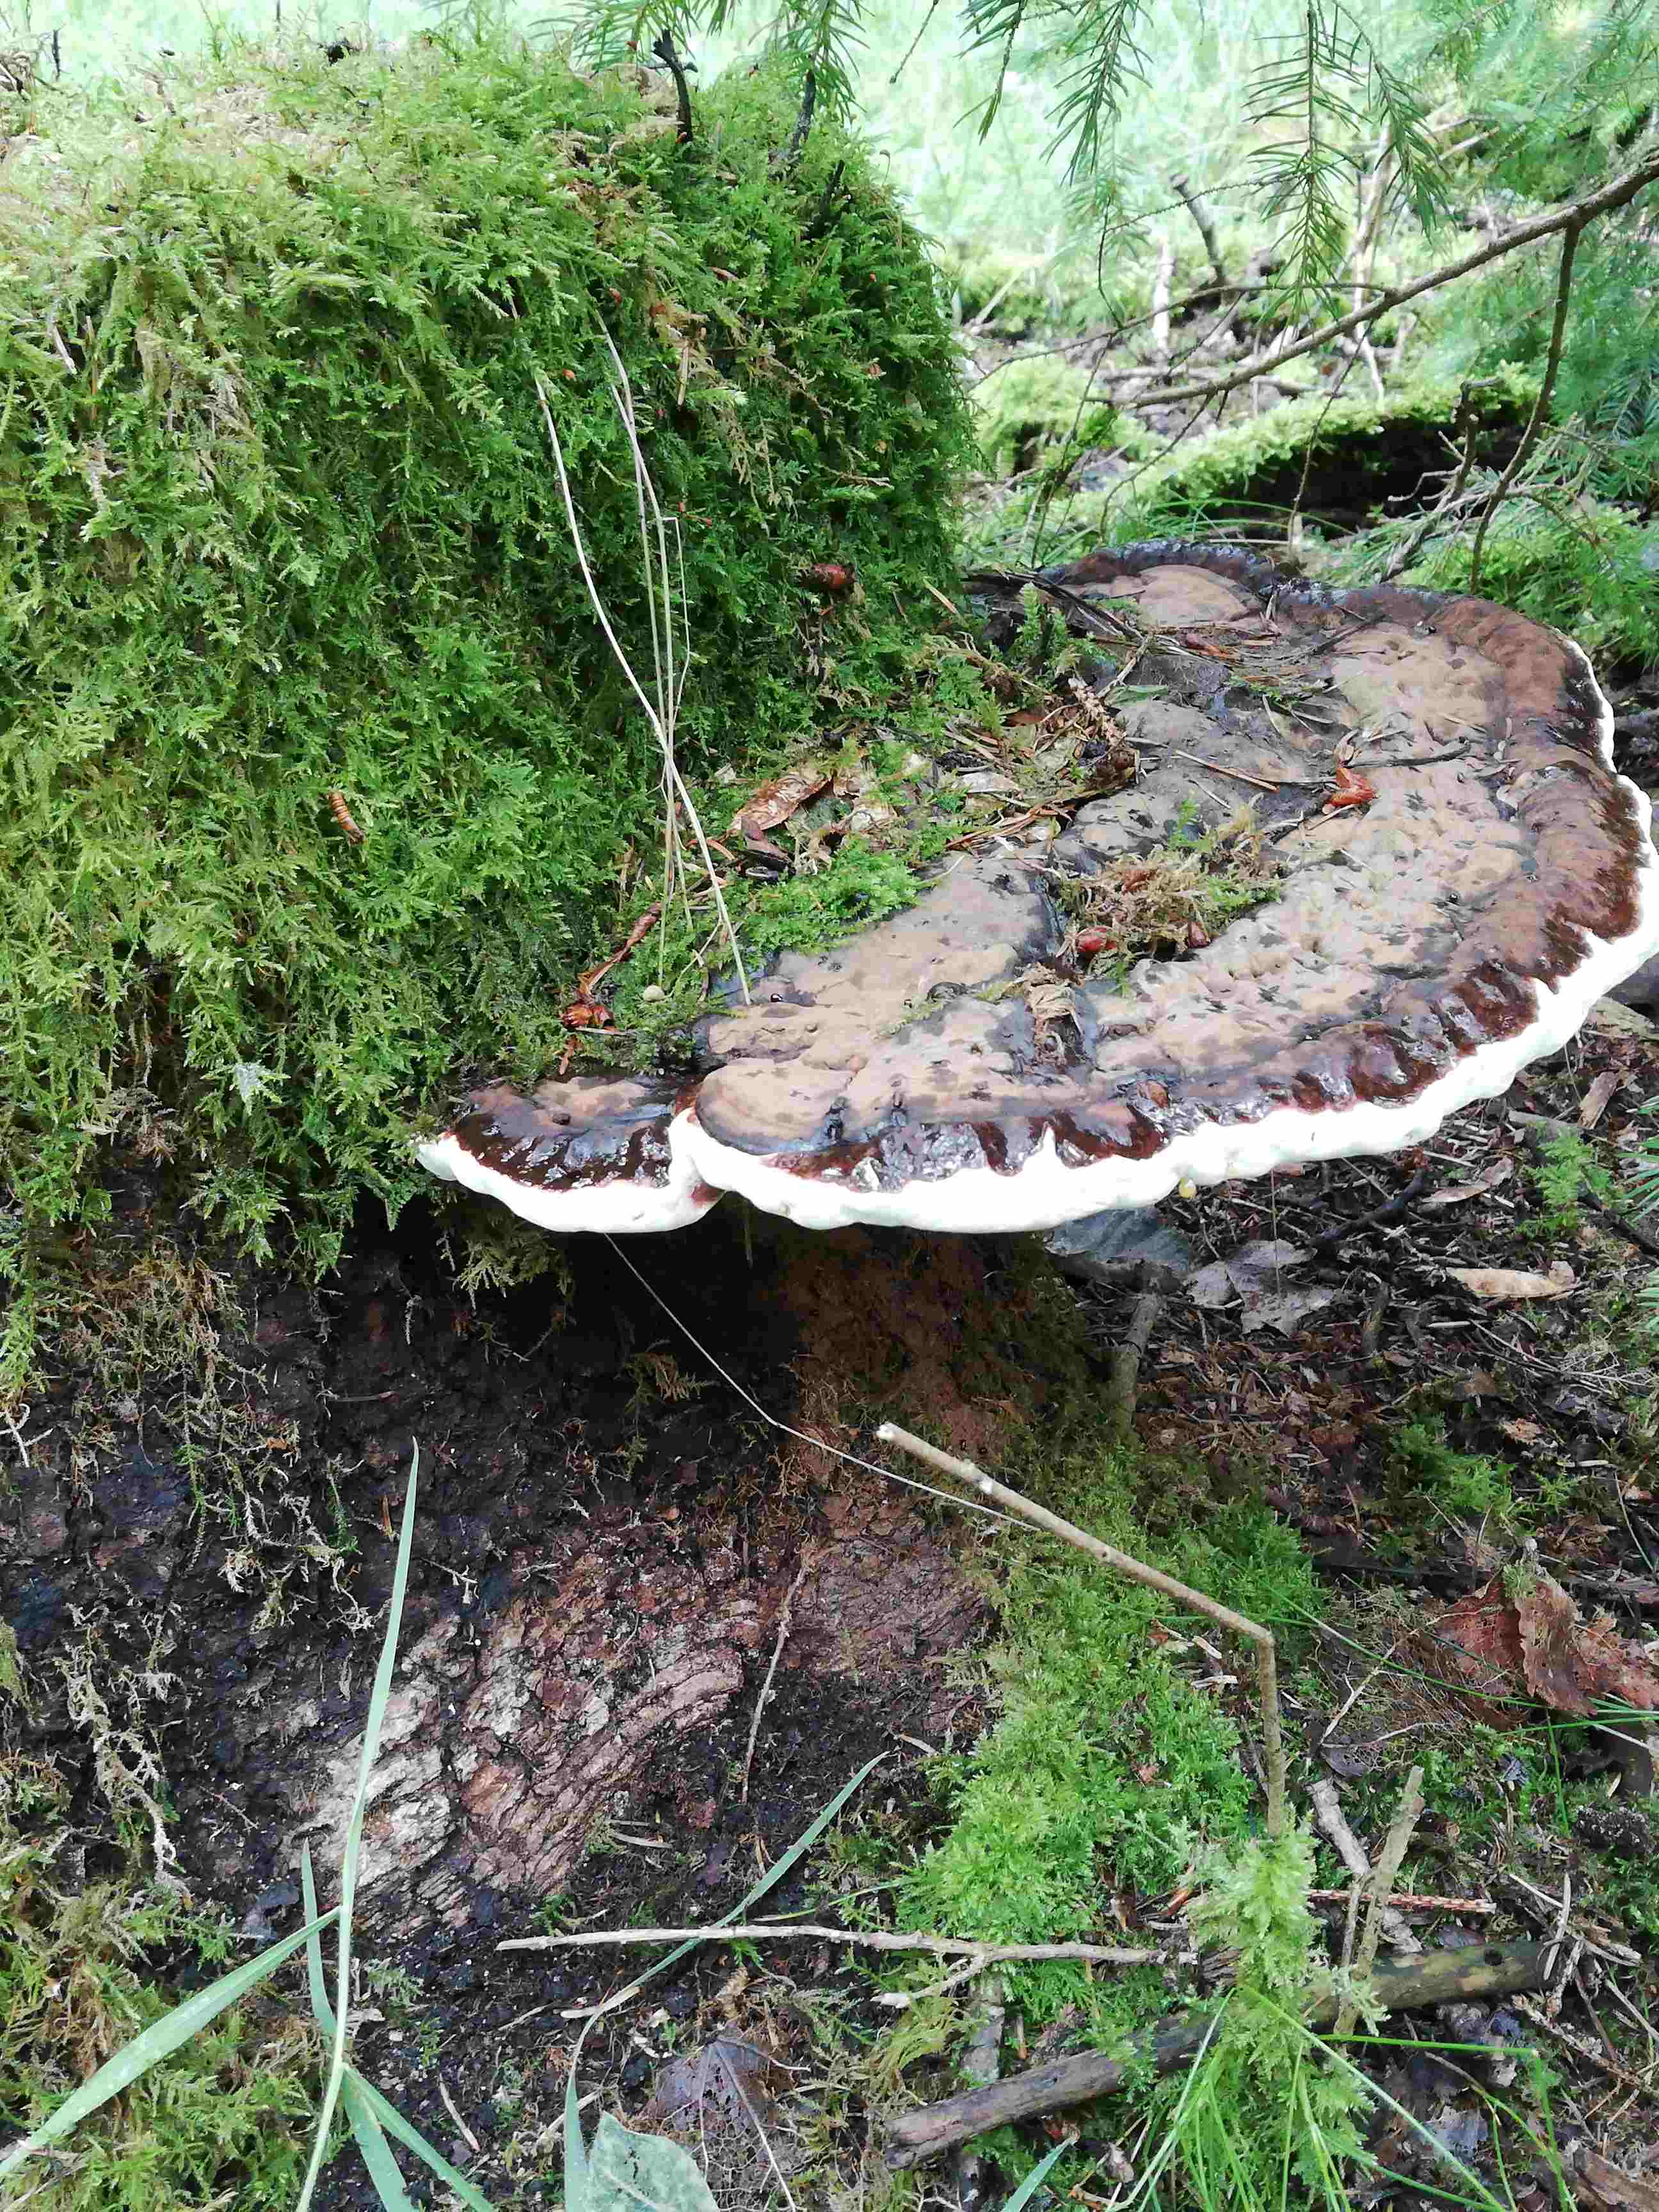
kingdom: Fungi
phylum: Basidiomycota
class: Agaricomycetes
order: Polyporales
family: Polyporaceae
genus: Ganoderma
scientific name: Ganoderma applanatum
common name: flad lakporesvamp
